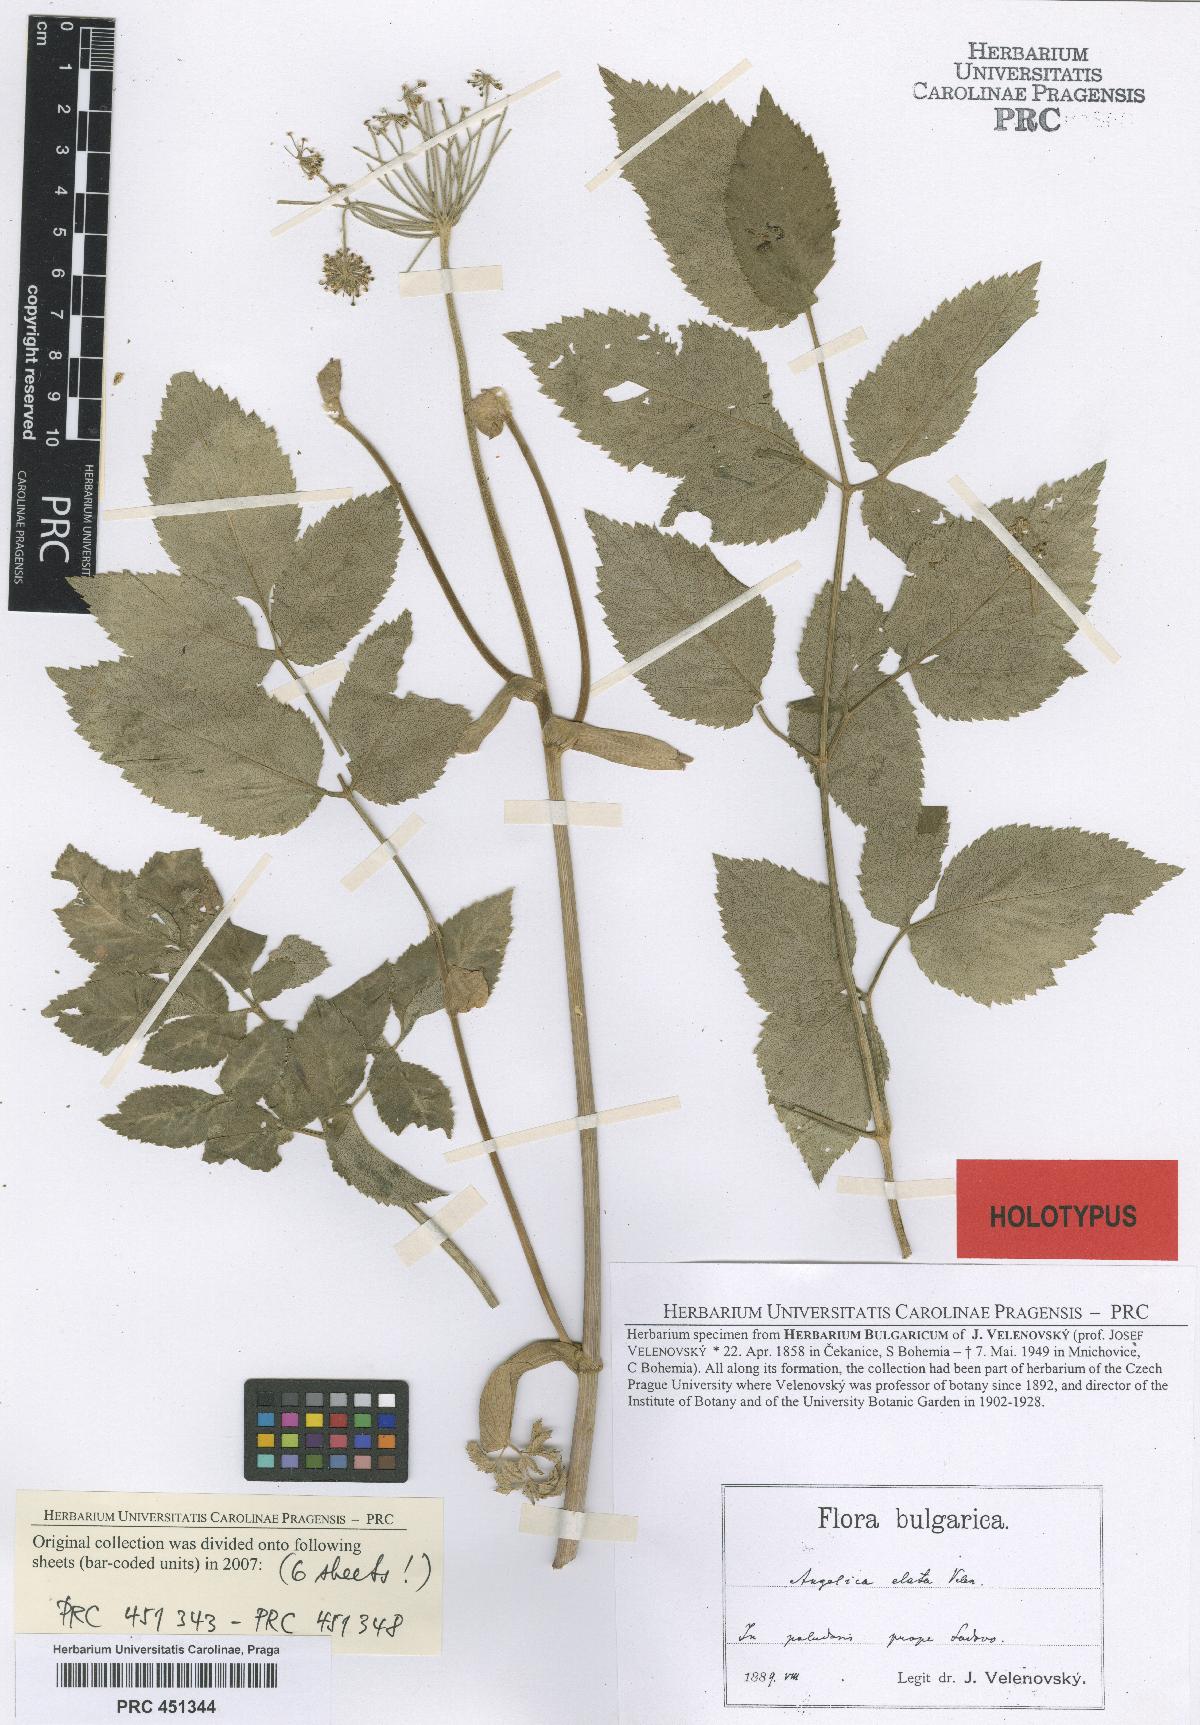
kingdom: Plantae
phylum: Tracheophyta
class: Magnoliopsida
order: Apiales
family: Apiaceae
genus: Angelica
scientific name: Angelica sylvestris
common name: Wild angelica
